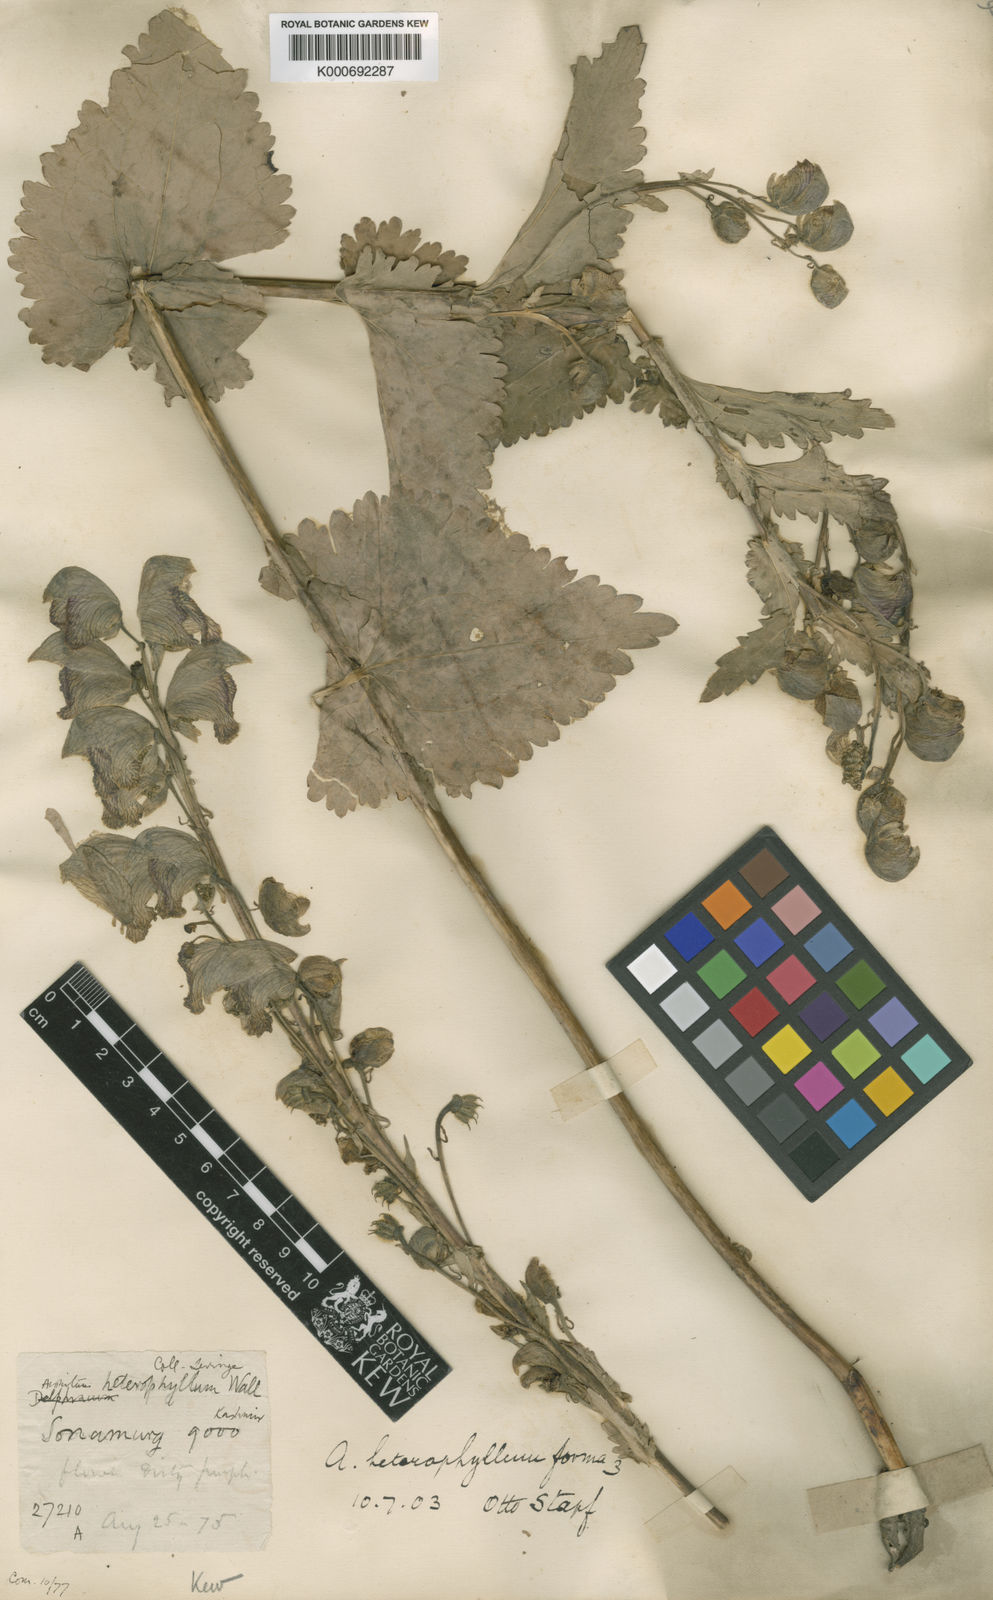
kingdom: Plantae
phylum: Tracheophyta
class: Magnoliopsida
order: Ranunculales
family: Ranunculaceae
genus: Aconitum
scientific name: Aconitum
